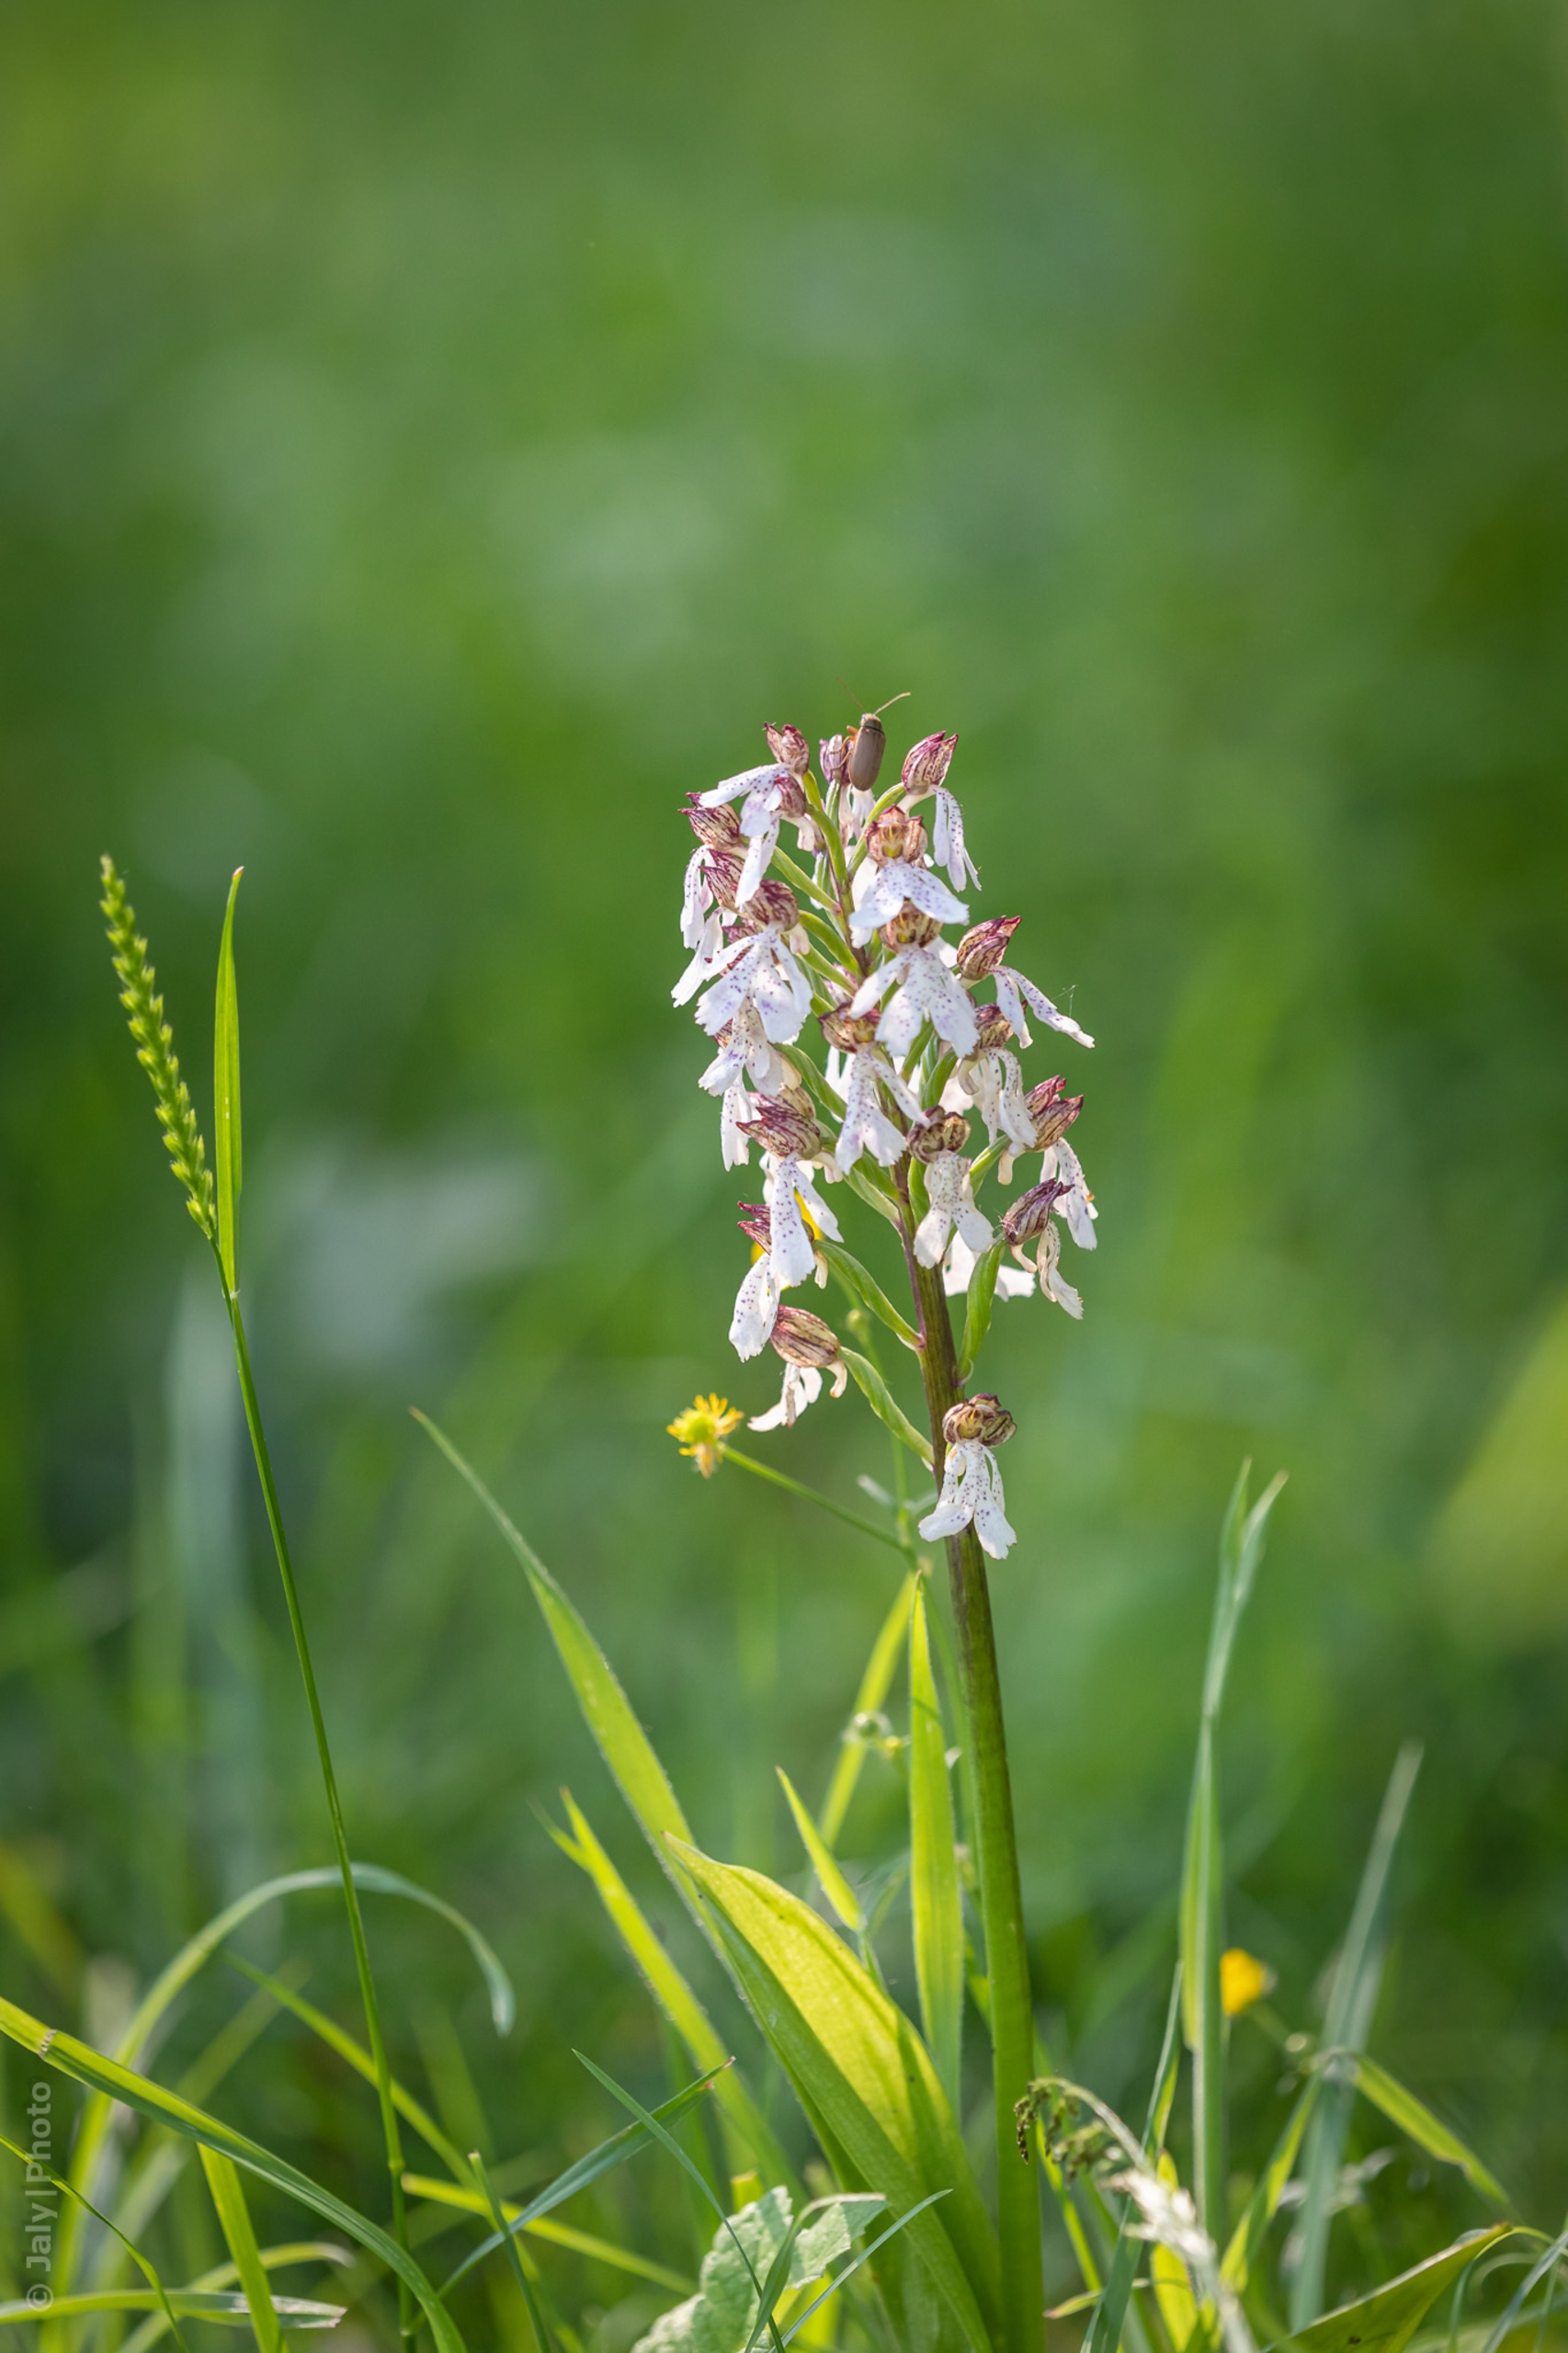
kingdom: Plantae
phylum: Tracheophyta
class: Liliopsida
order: Asparagales
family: Orchidaceae
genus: Orchis
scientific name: Orchis purpurea
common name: Stor gøgeurt
